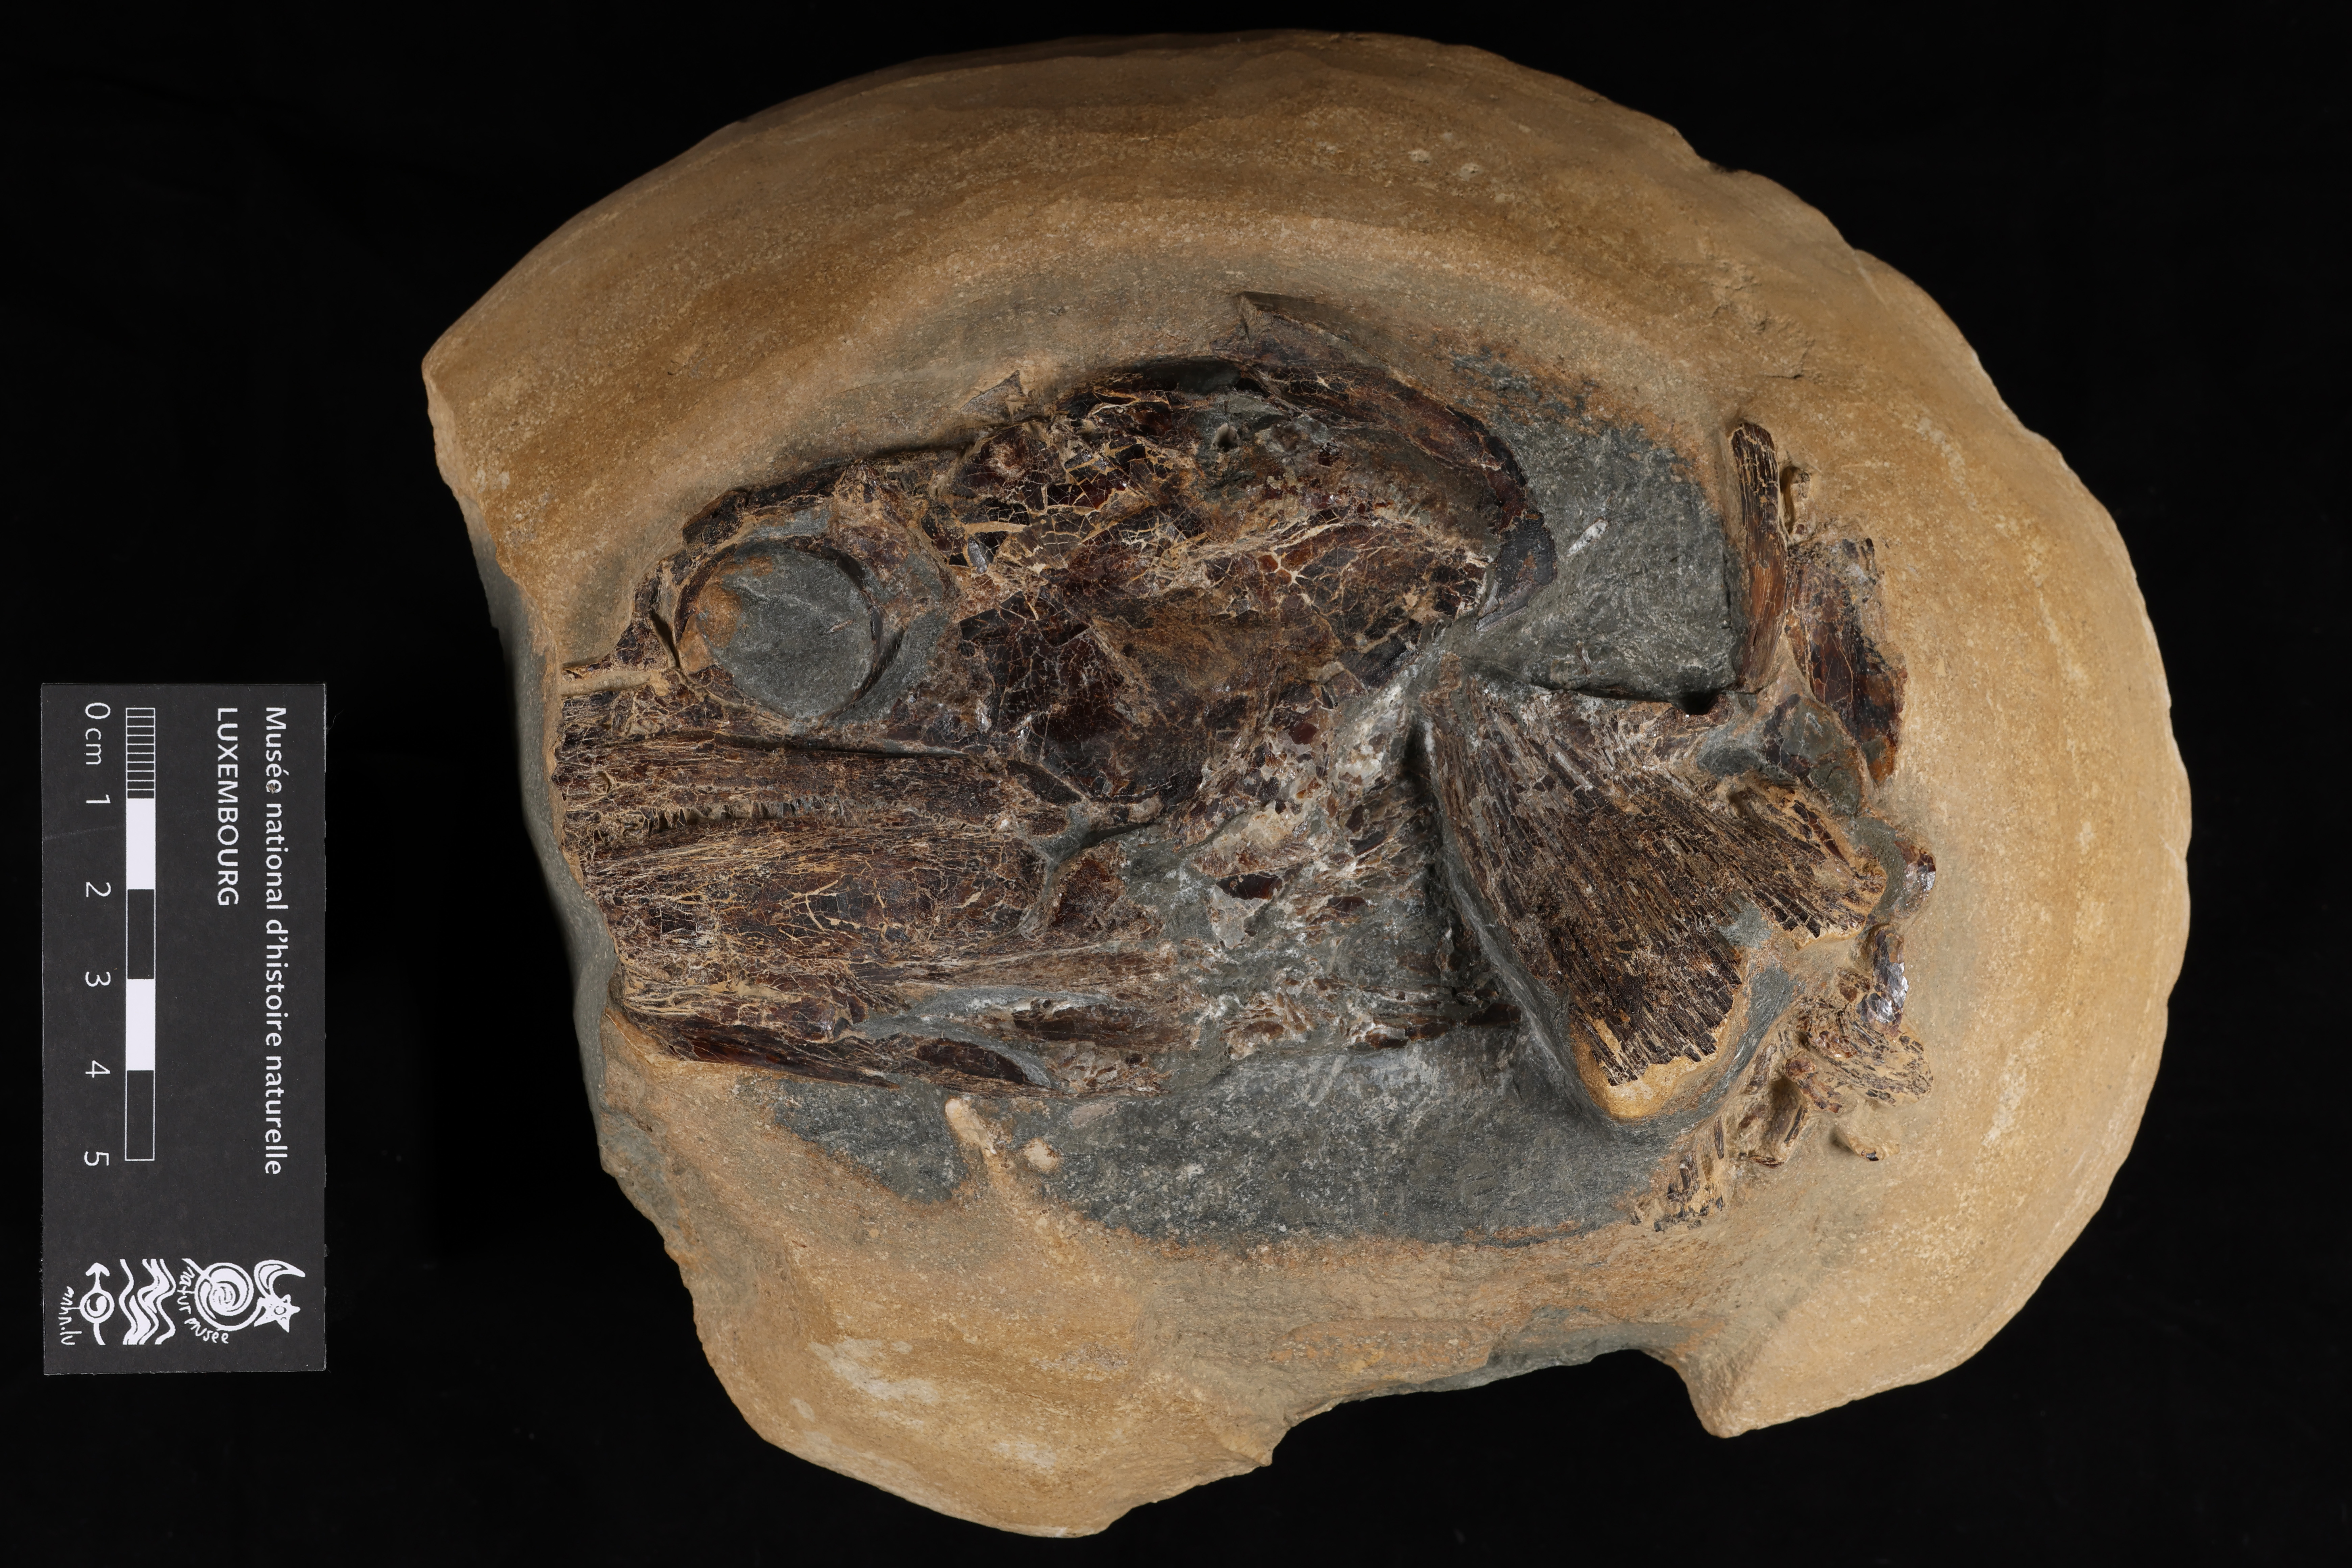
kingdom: Animalia
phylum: Chordata
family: Pachycormidae
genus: Pachycormus
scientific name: Pachycormus macropterus
